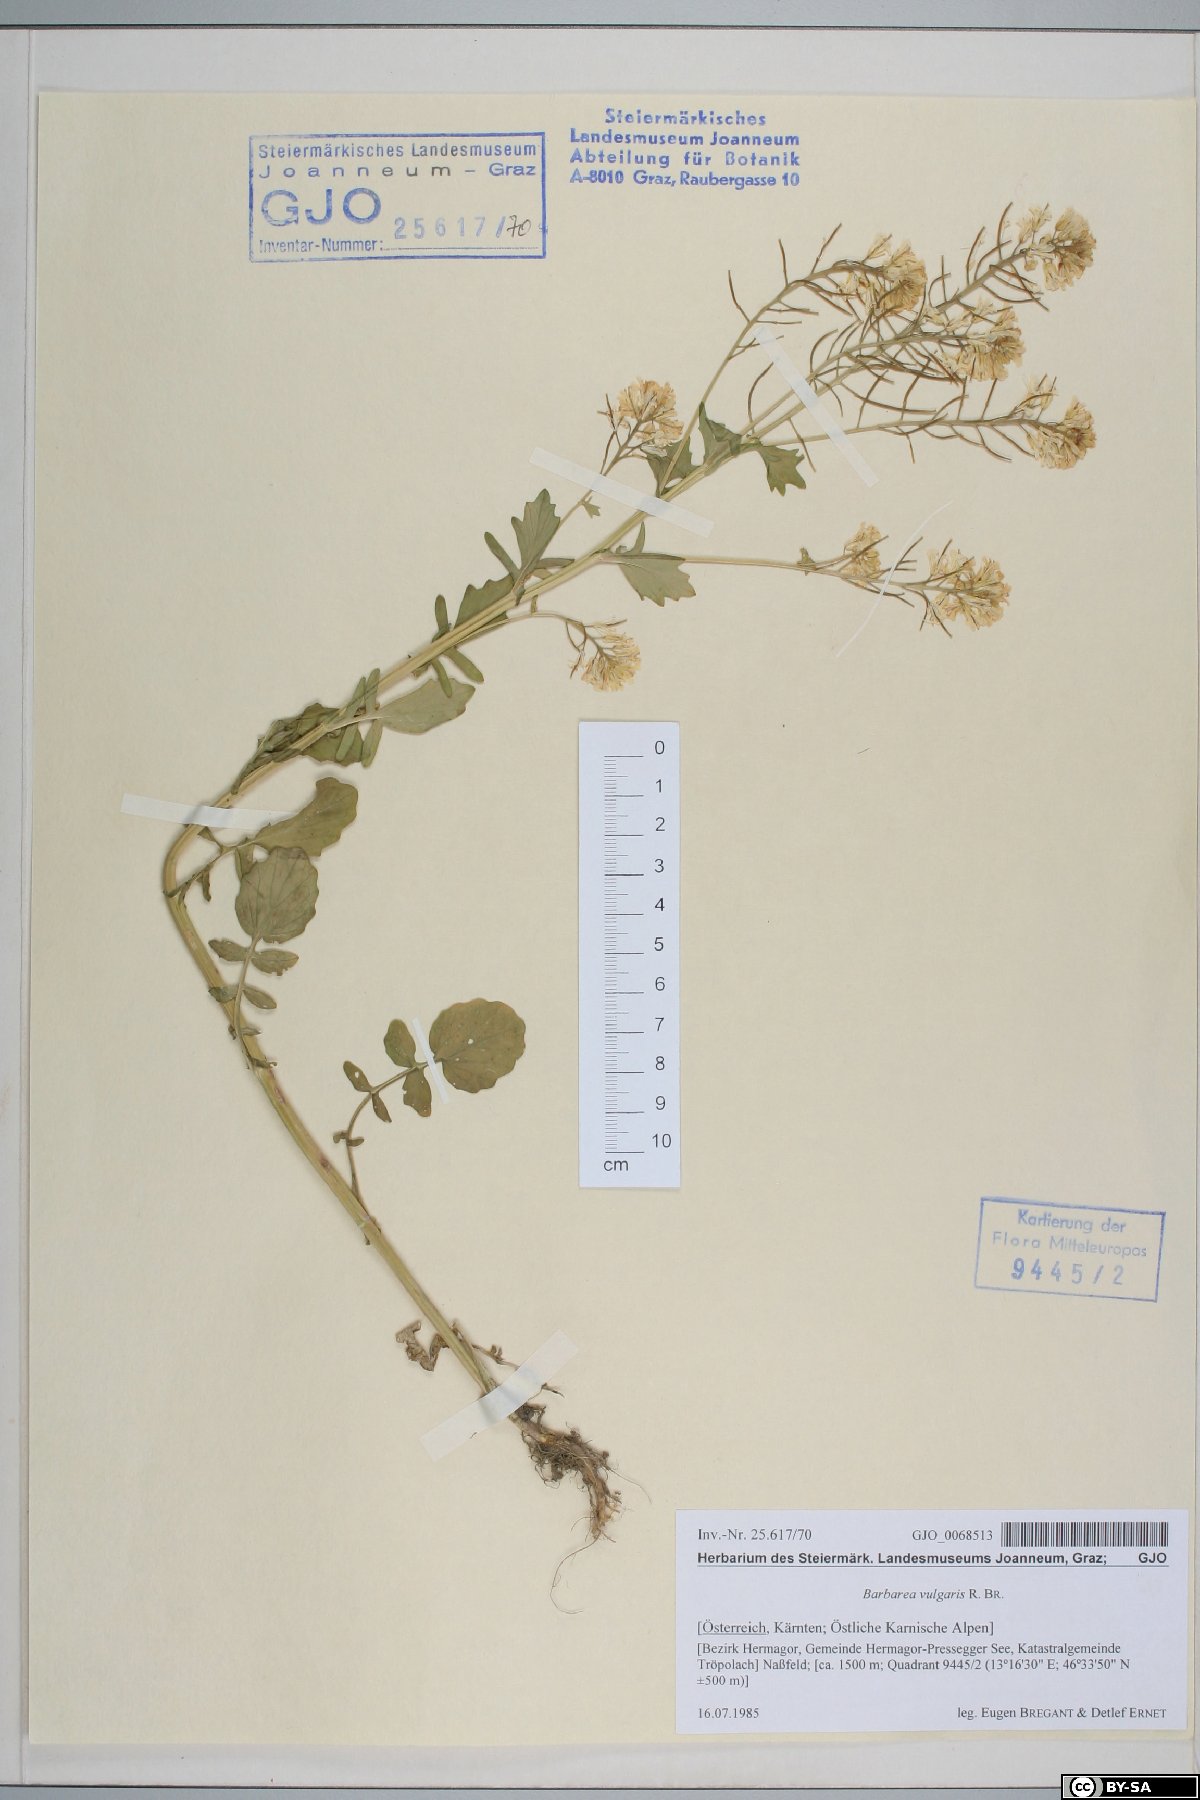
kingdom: Plantae
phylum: Tracheophyta
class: Magnoliopsida
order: Brassicales
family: Brassicaceae
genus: Barbarea
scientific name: Barbarea vulgaris
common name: Cressy-greens
